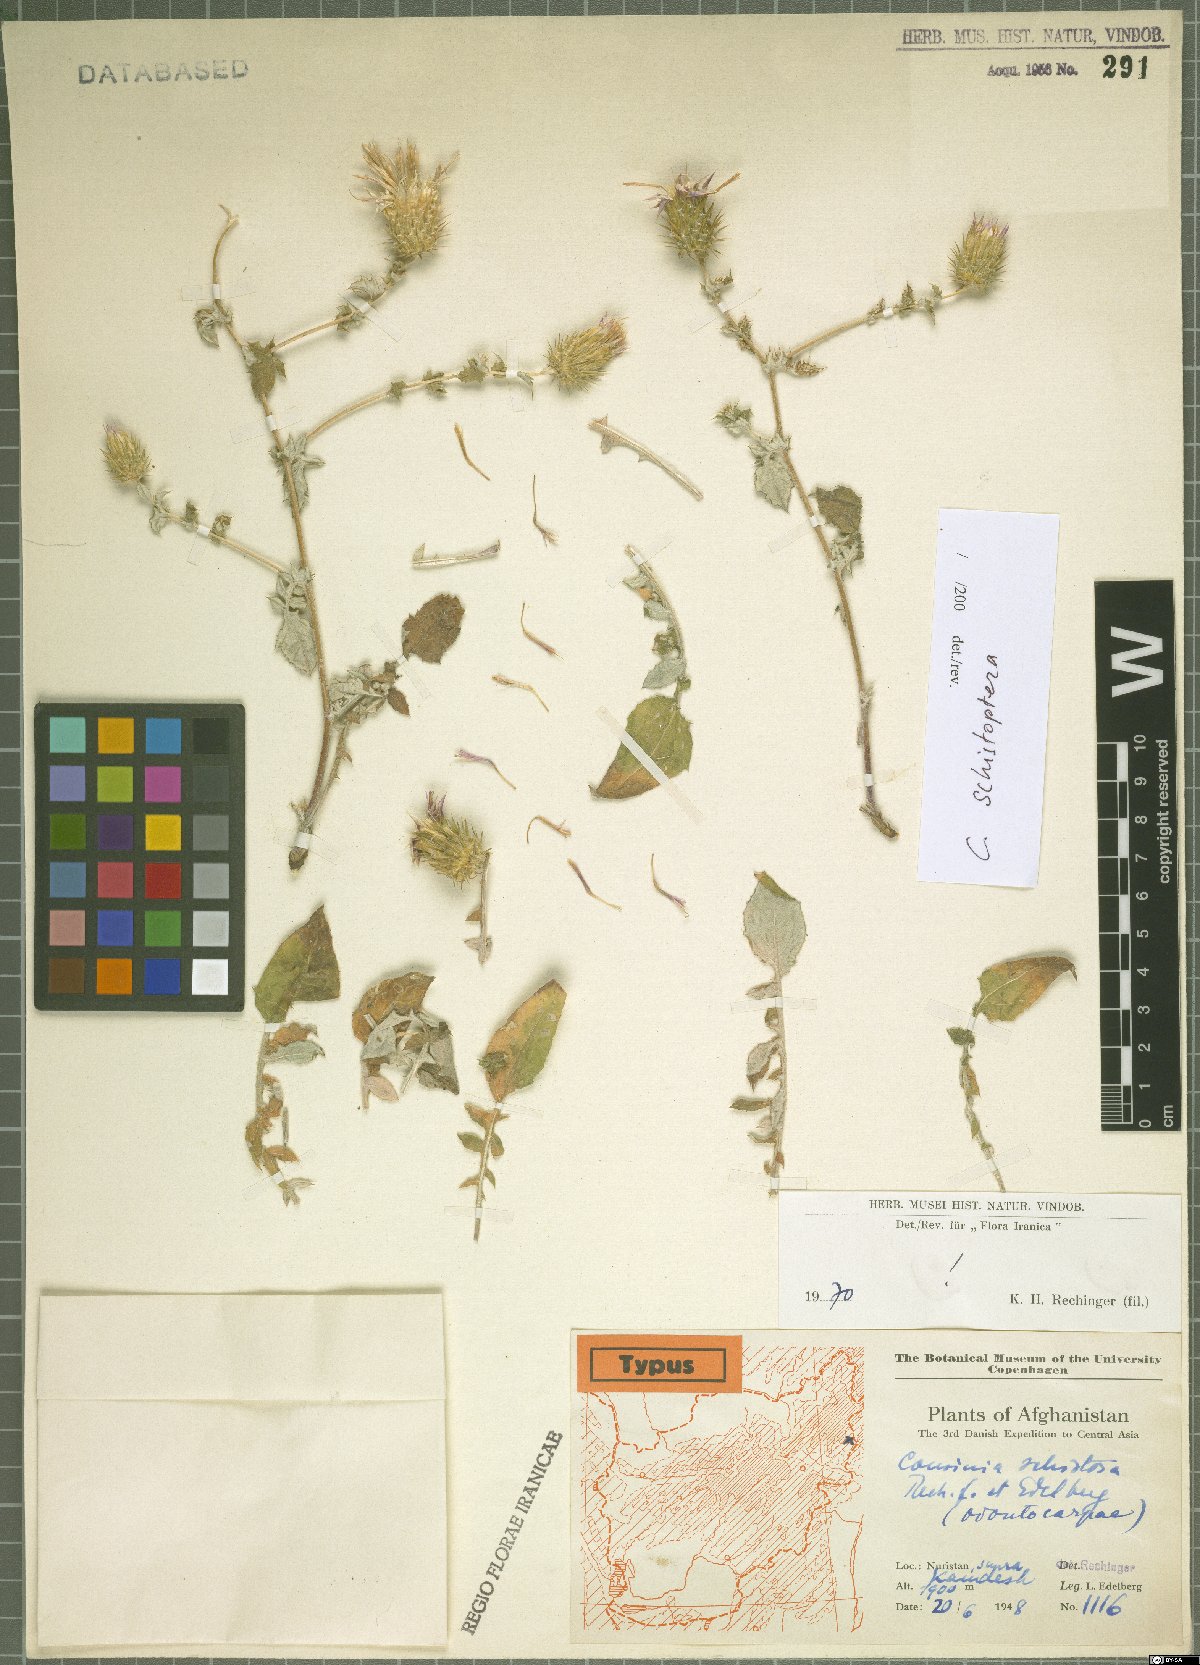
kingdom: Plantae
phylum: Tracheophyta
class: Magnoliopsida
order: Asterales
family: Asteraceae
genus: Cousinia
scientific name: Cousinia schistosa
